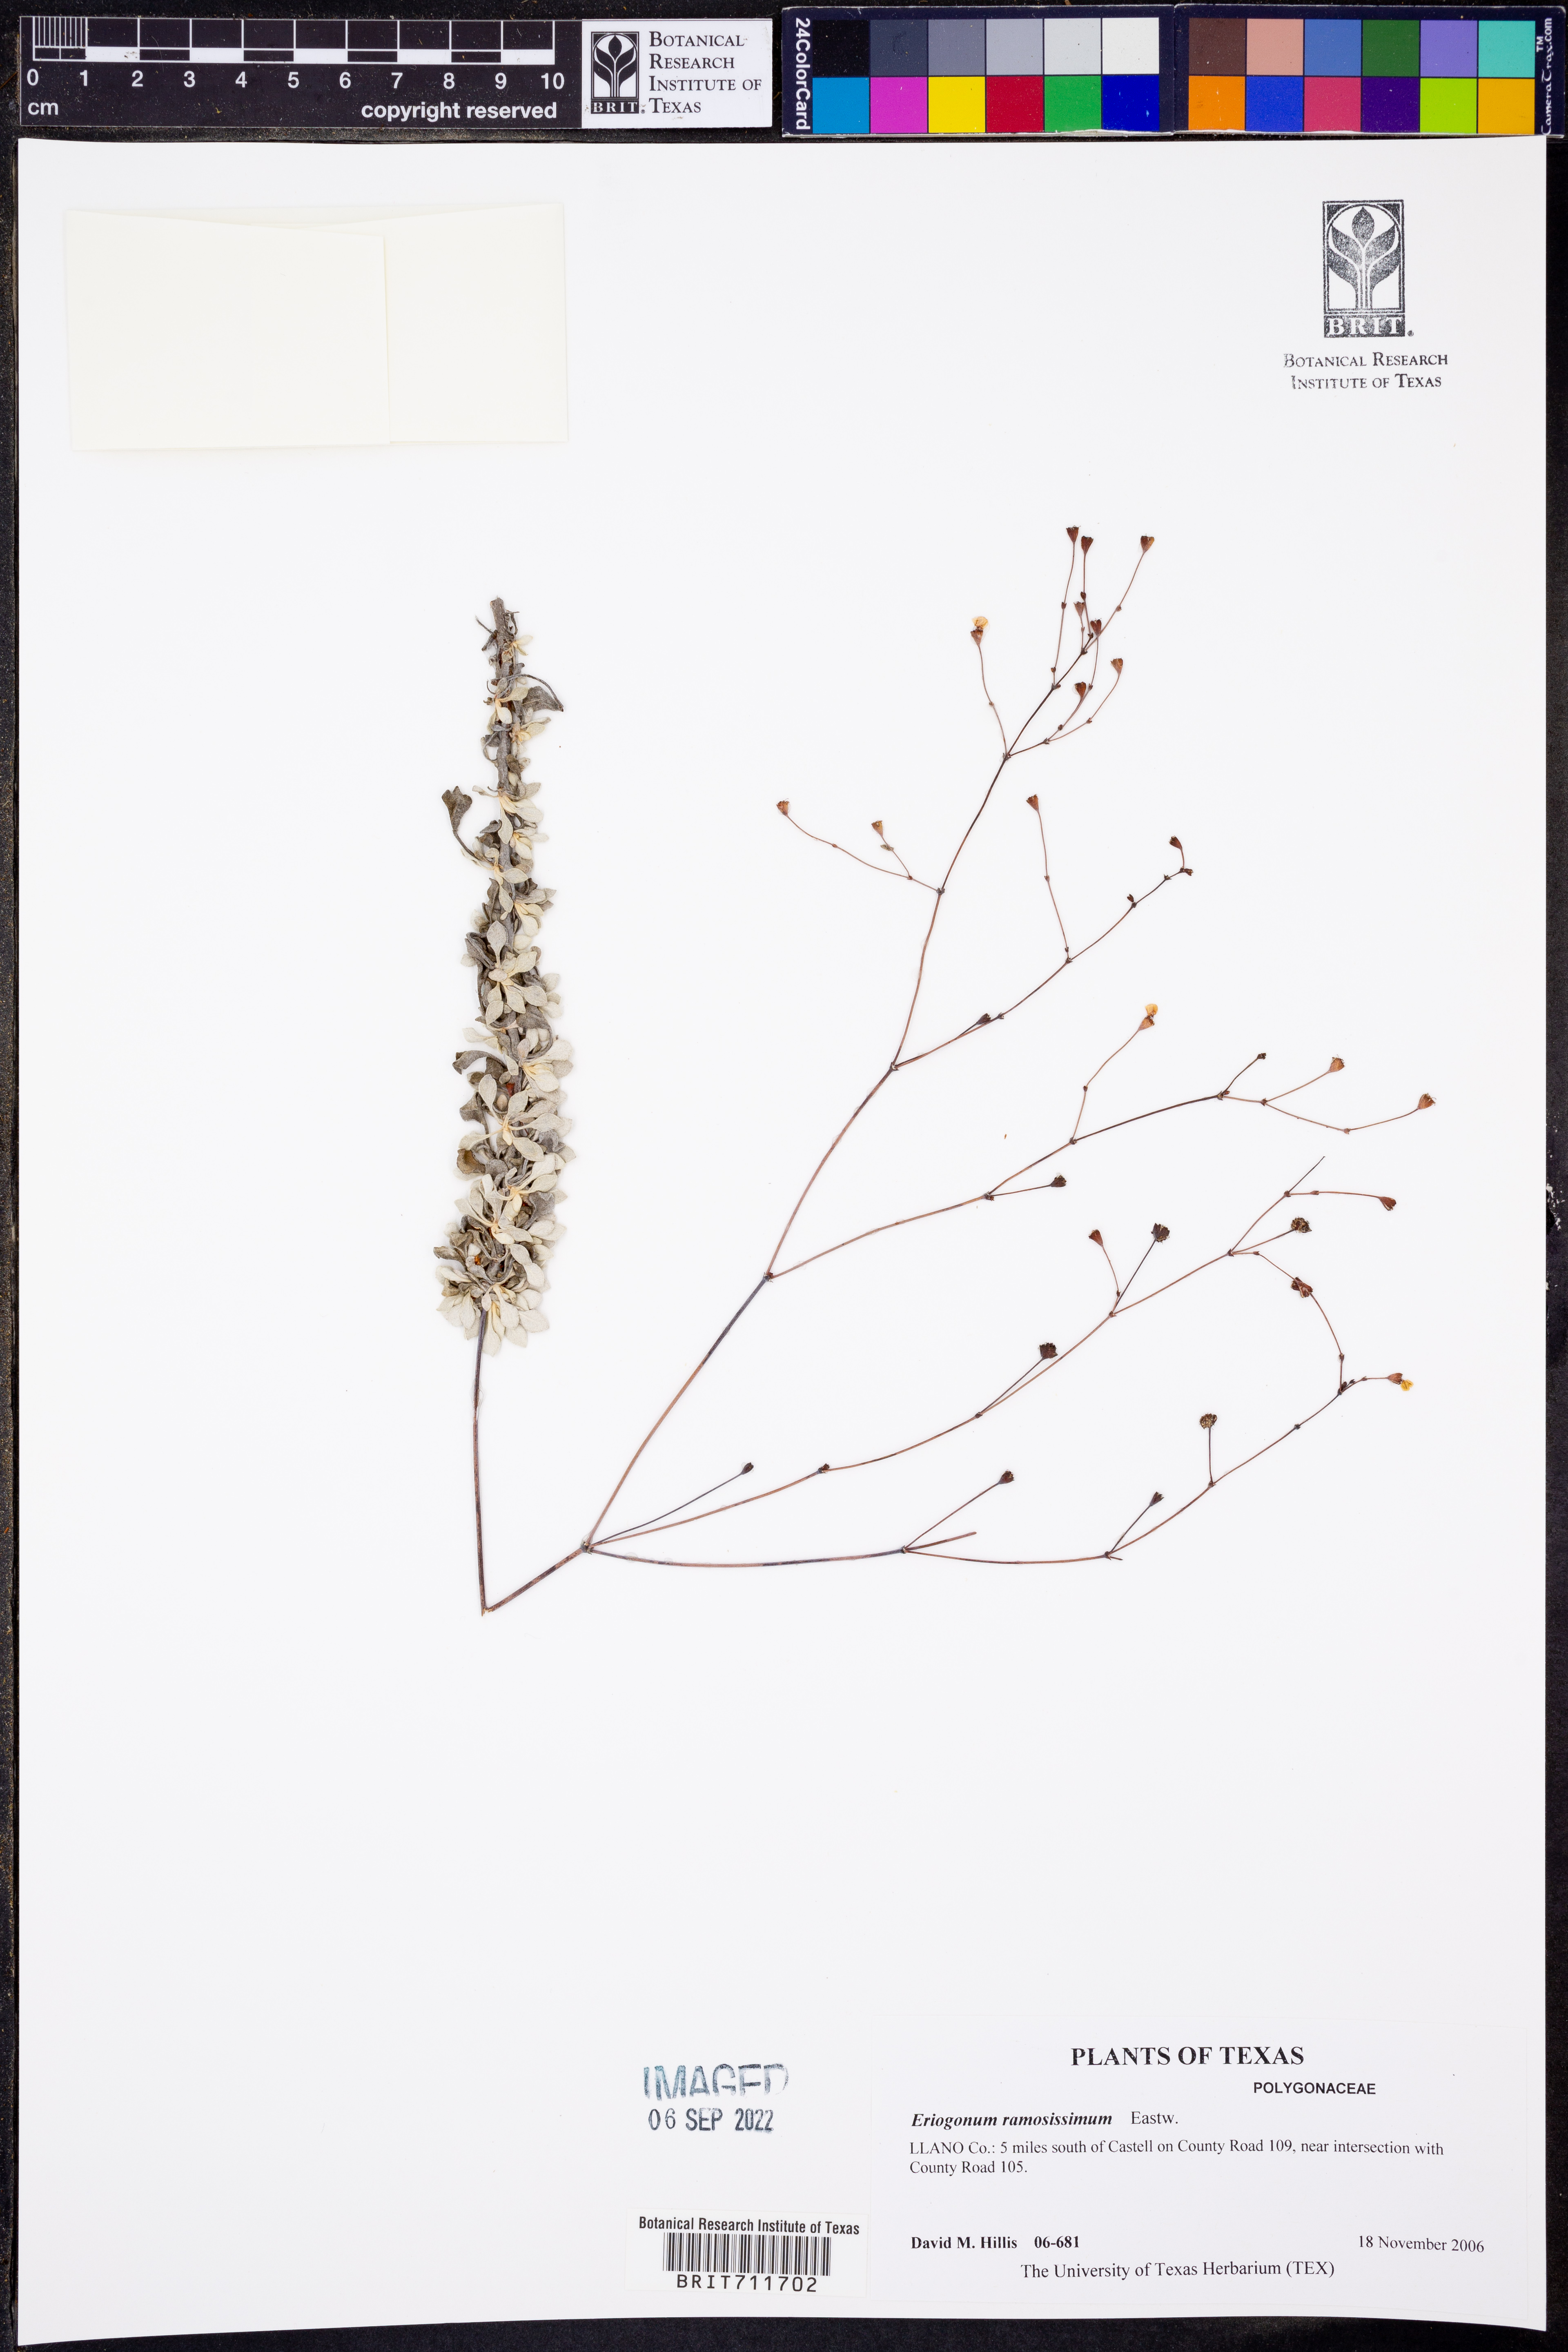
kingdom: Plantae
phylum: Tracheophyta
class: Magnoliopsida
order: Caryophyllales
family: Polygonaceae
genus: Eriogonum
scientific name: Eriogonum leptocladon
